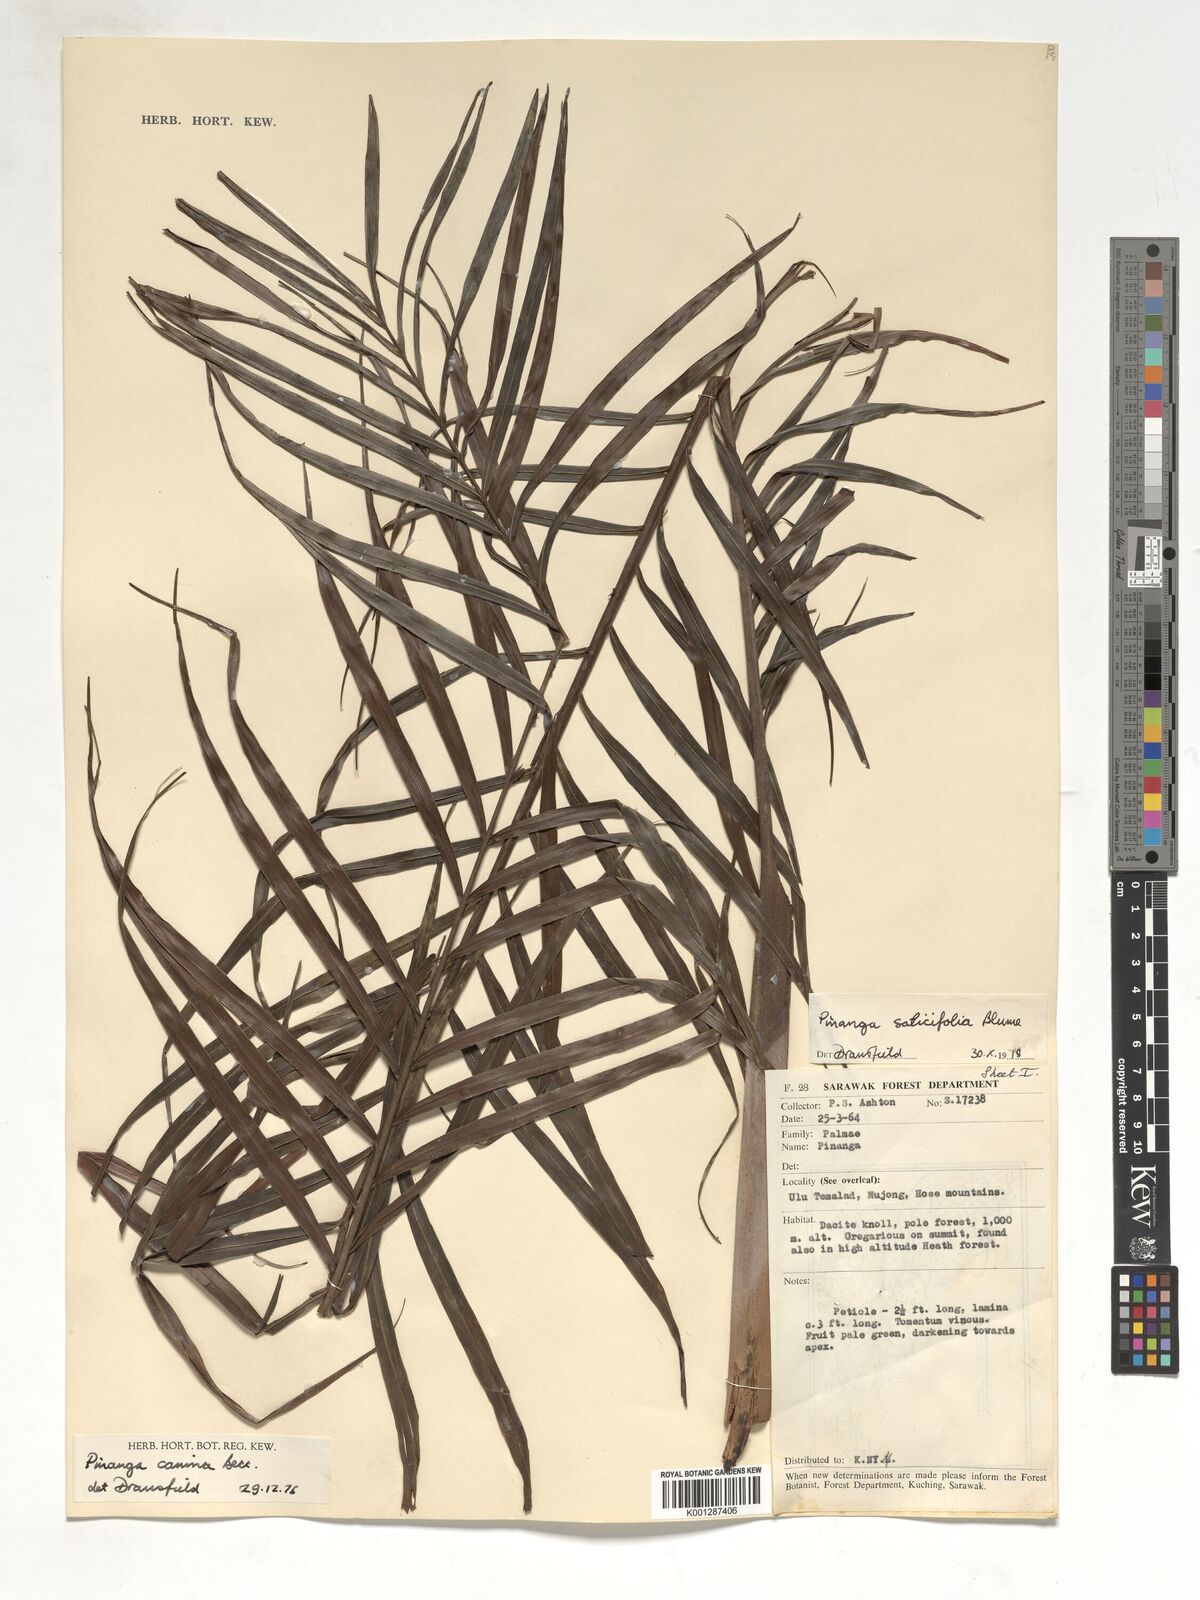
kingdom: Plantae
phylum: Tracheophyta
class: Liliopsida
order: Arecales
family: Arecaceae
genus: Pinanga
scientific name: Pinanga salicifolia
